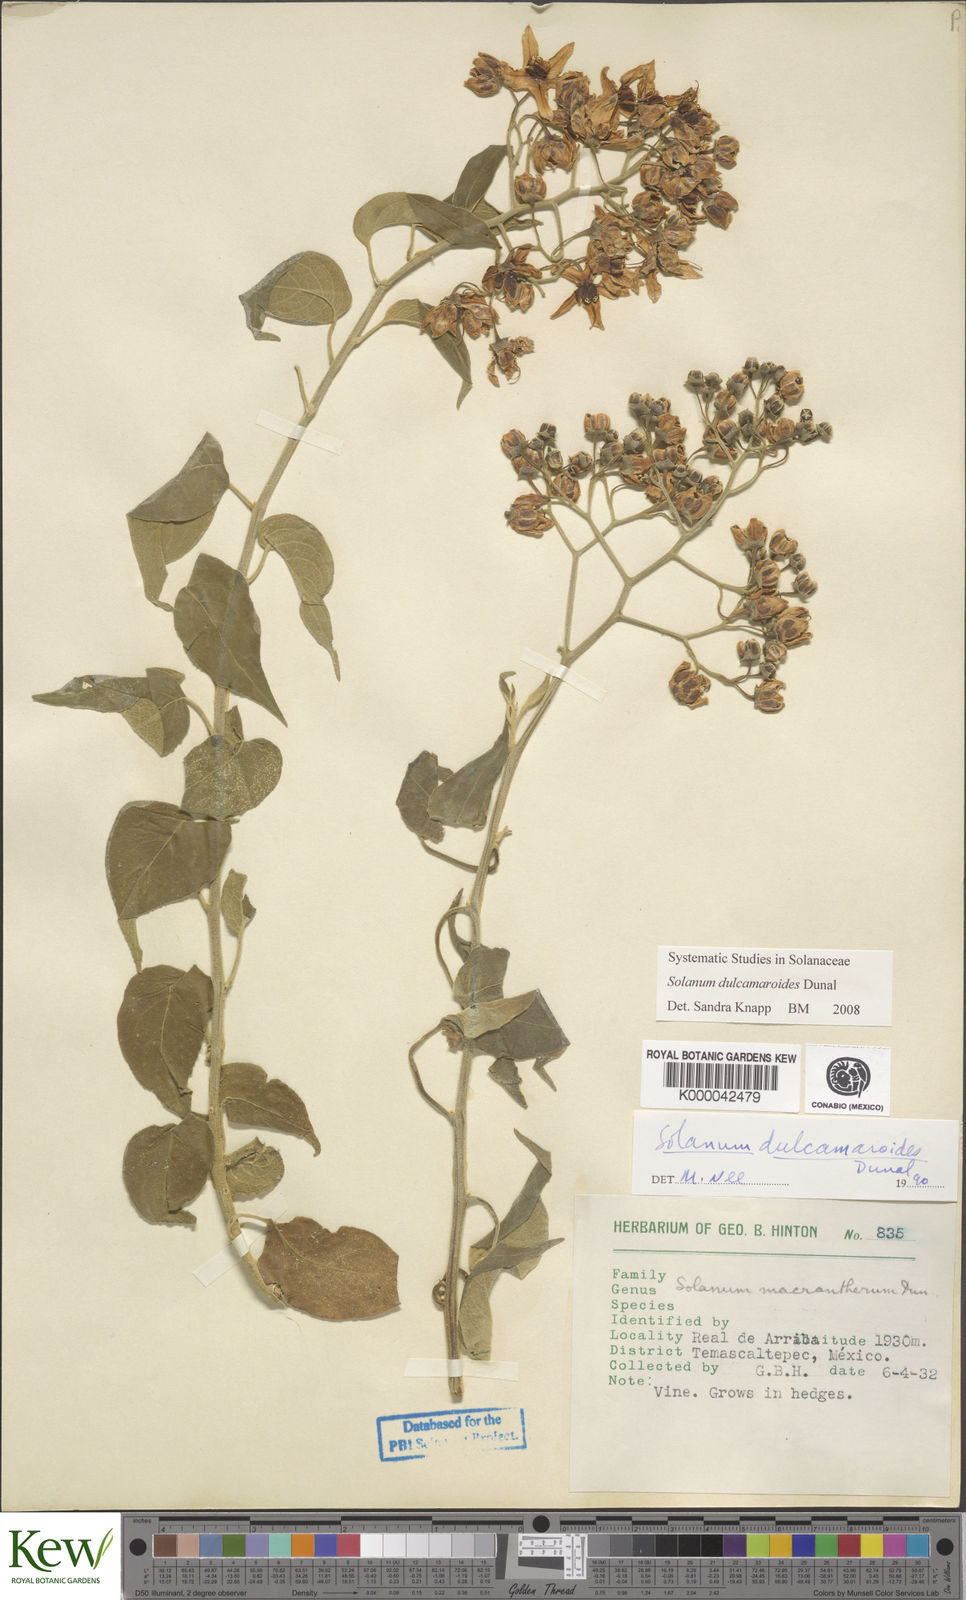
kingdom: Plantae
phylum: Tracheophyta
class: Magnoliopsida
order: Solanales
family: Solanaceae
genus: Solanum
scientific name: Solanum dulcamaroides
